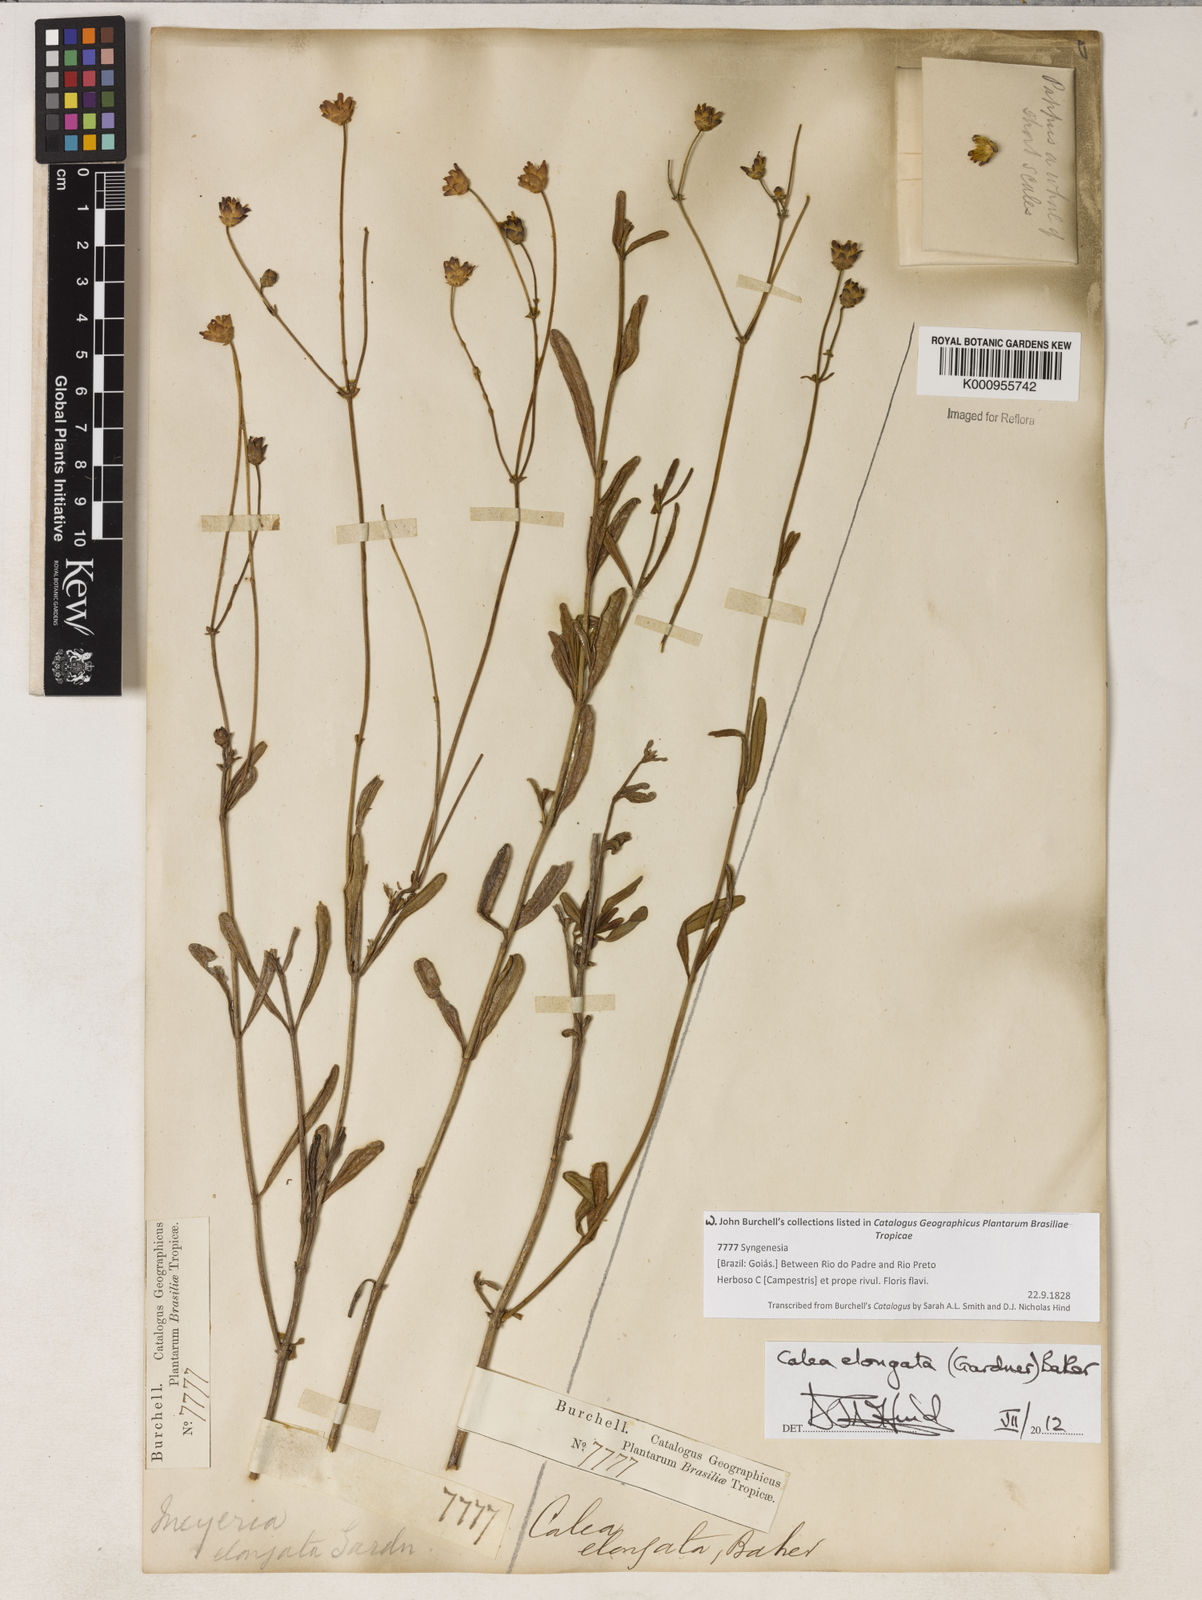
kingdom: Plantae
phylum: Tracheophyta
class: Magnoliopsida
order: Asterales
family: Asteraceae
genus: Calea
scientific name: Calea elongata
